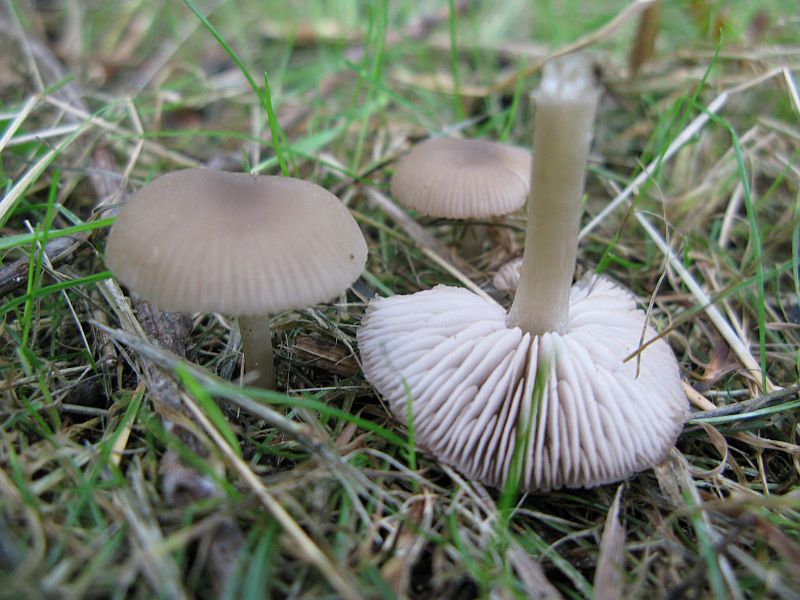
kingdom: Fungi
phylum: Basidiomycota
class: Agaricomycetes
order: Agaricales
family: Entolomataceae
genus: Entoloma
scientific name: Entoloma sericeum
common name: silkeglinsende rødblad
